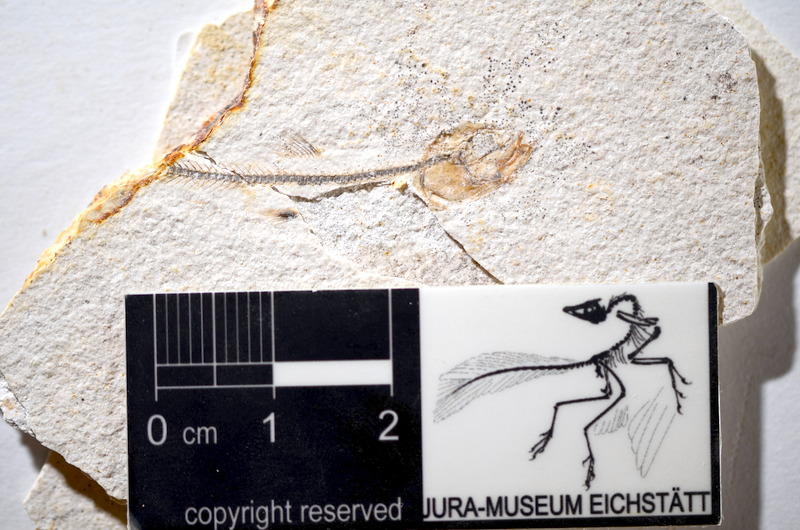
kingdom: Animalia
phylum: Chordata
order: Salmoniformes
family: Orthogonikleithridae
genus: Orthogonikleithrus
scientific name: Orthogonikleithrus hoelli
